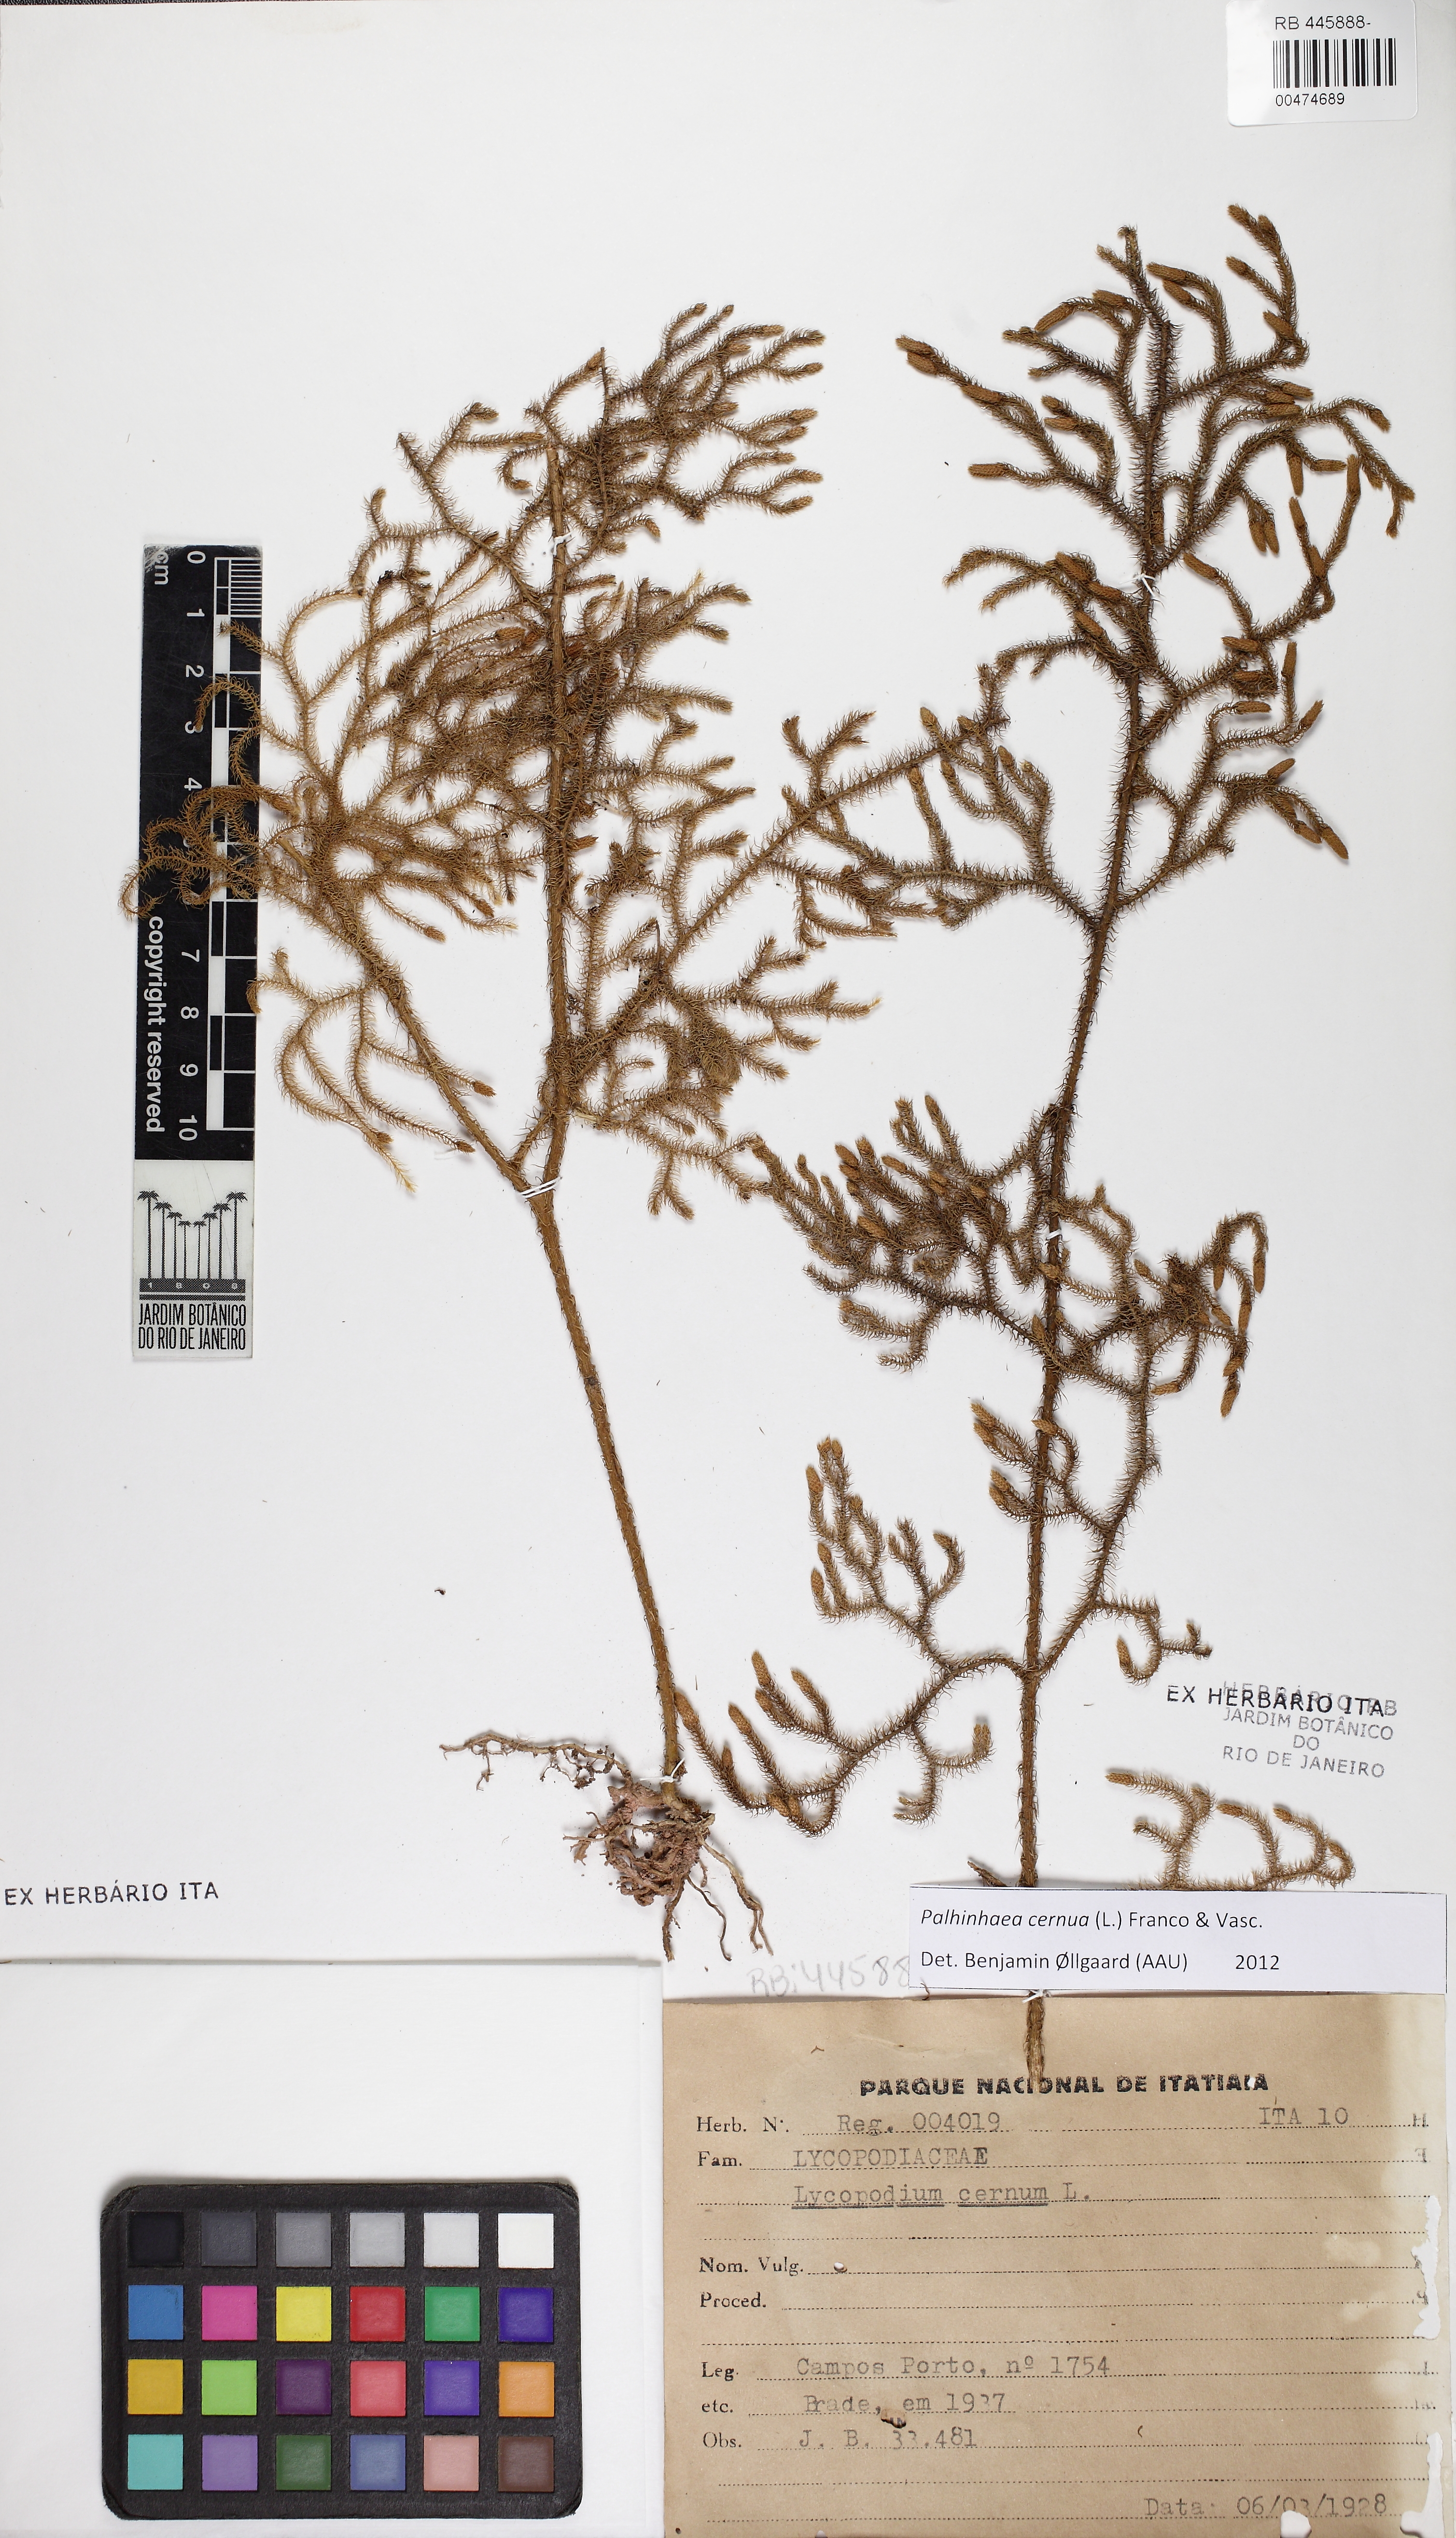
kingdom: Plantae
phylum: Tracheophyta
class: Lycopodiopsida
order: Lycopodiales
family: Lycopodiaceae
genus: Palhinhaea
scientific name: Palhinhaea cernua
